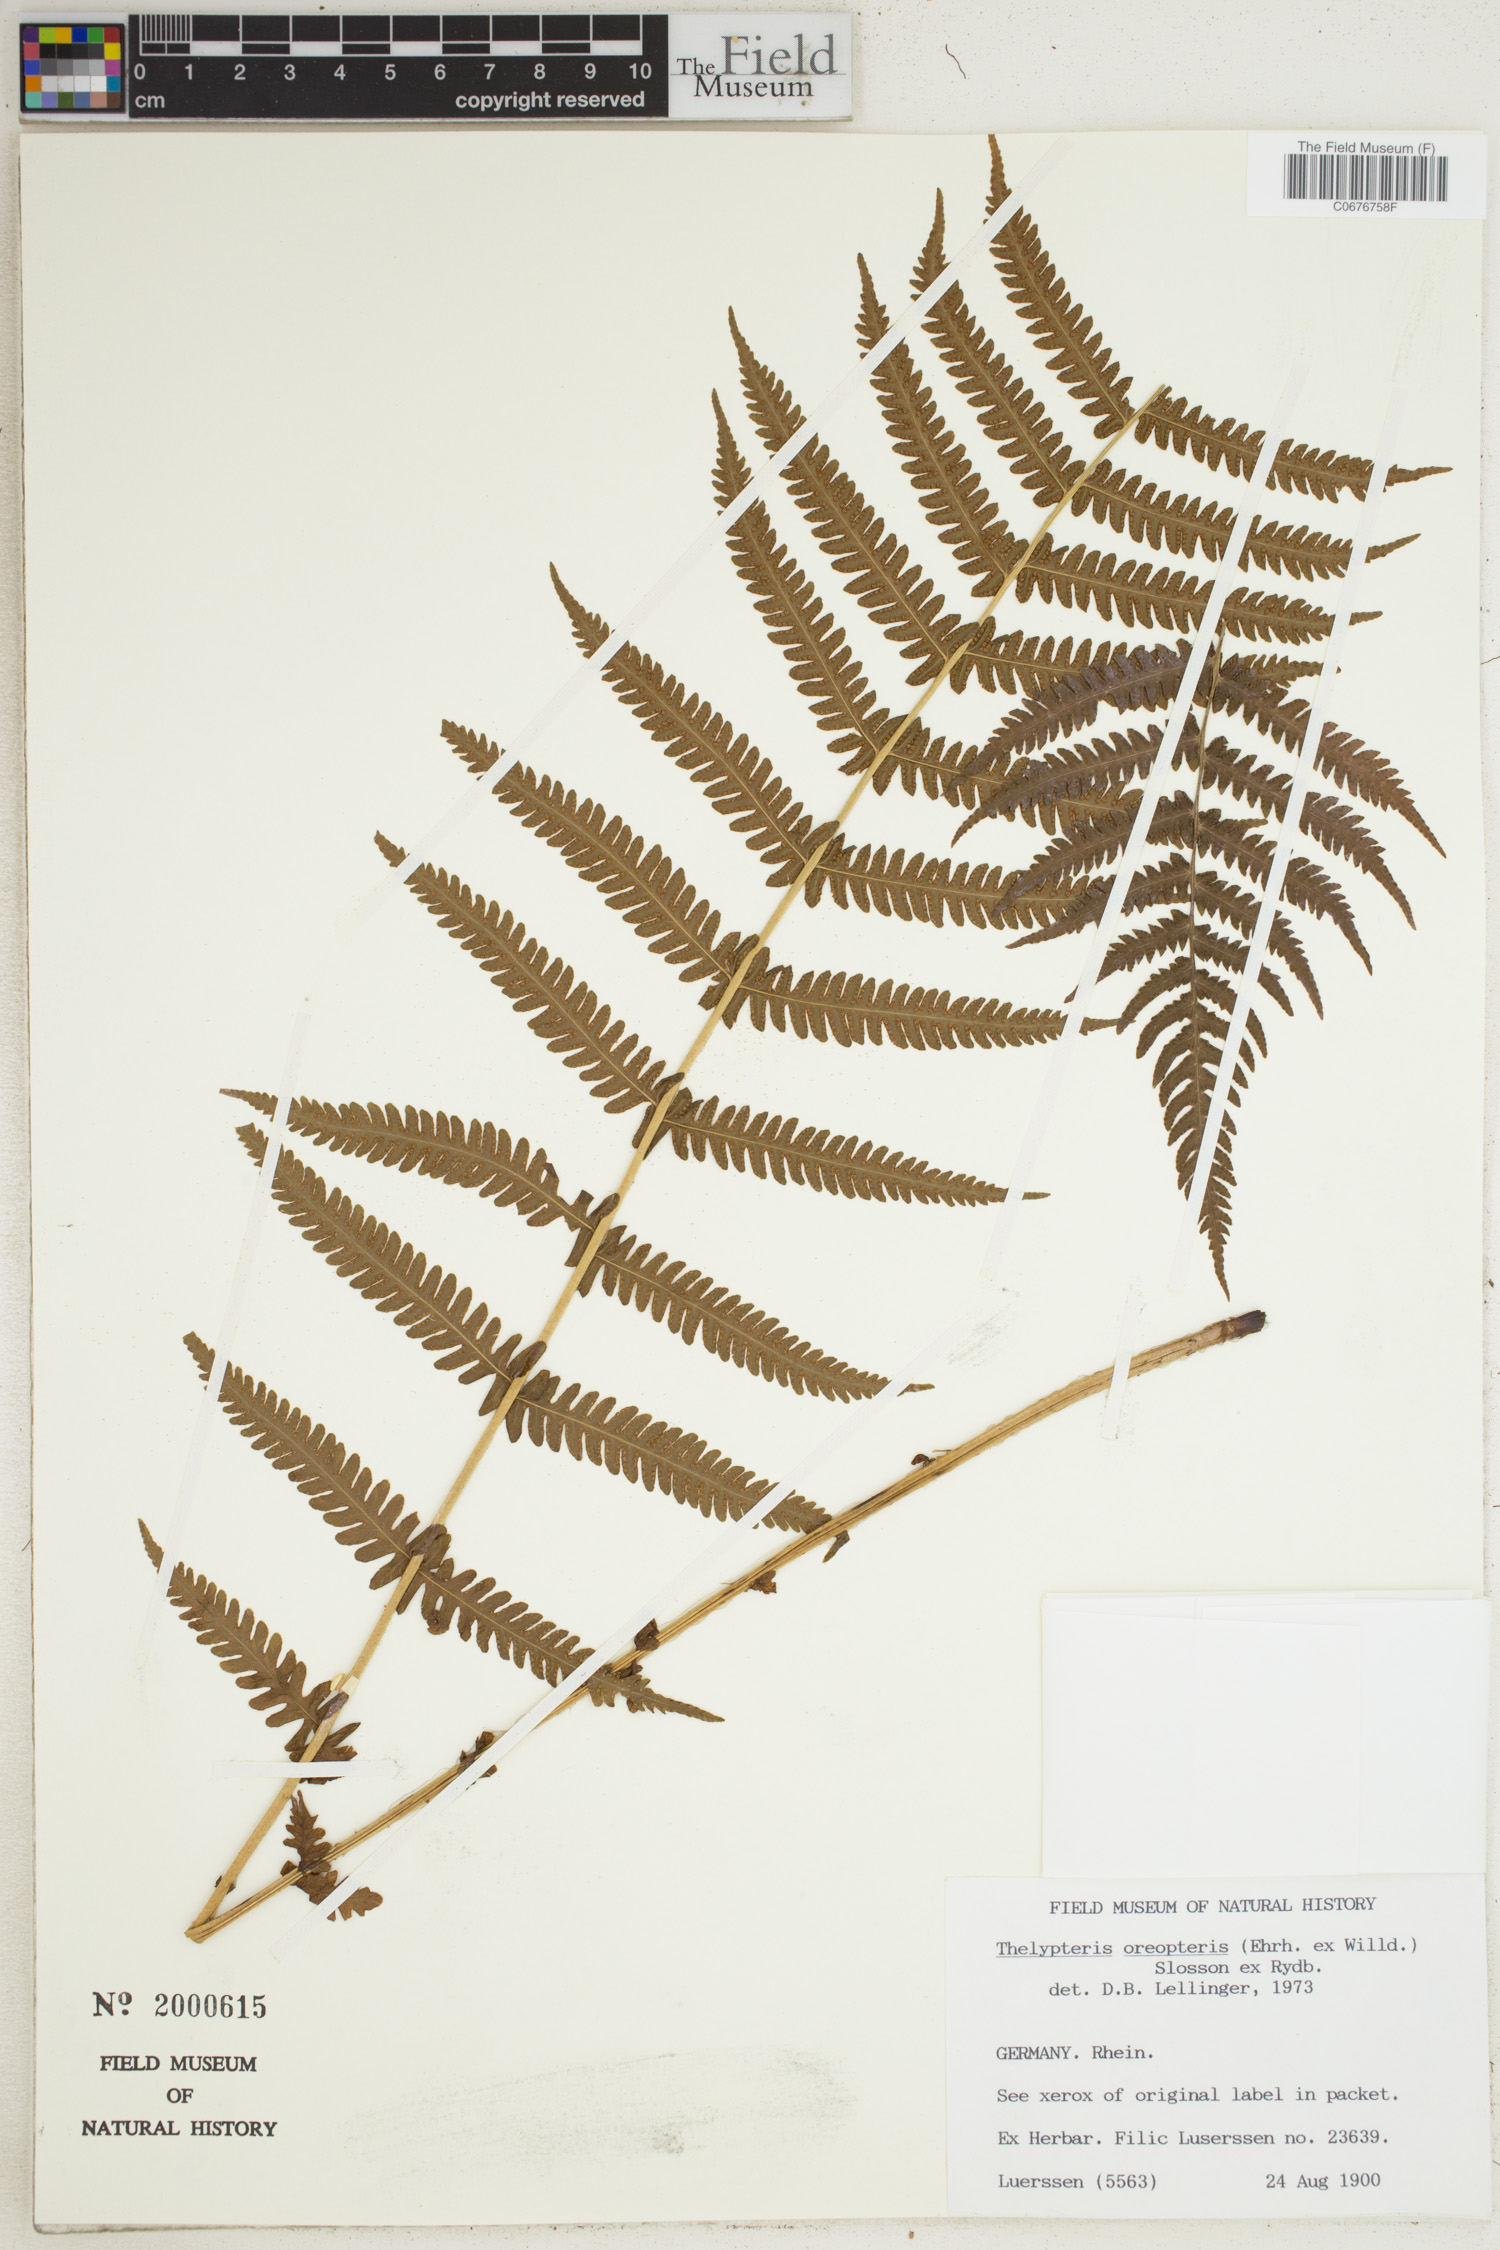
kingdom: Plantae
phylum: Tracheophyta
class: Polypodiopsida
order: Polypodiales
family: Thelypteridaceae
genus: Oreopteris
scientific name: Oreopteris limbosperma
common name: Lemon-scented fern
